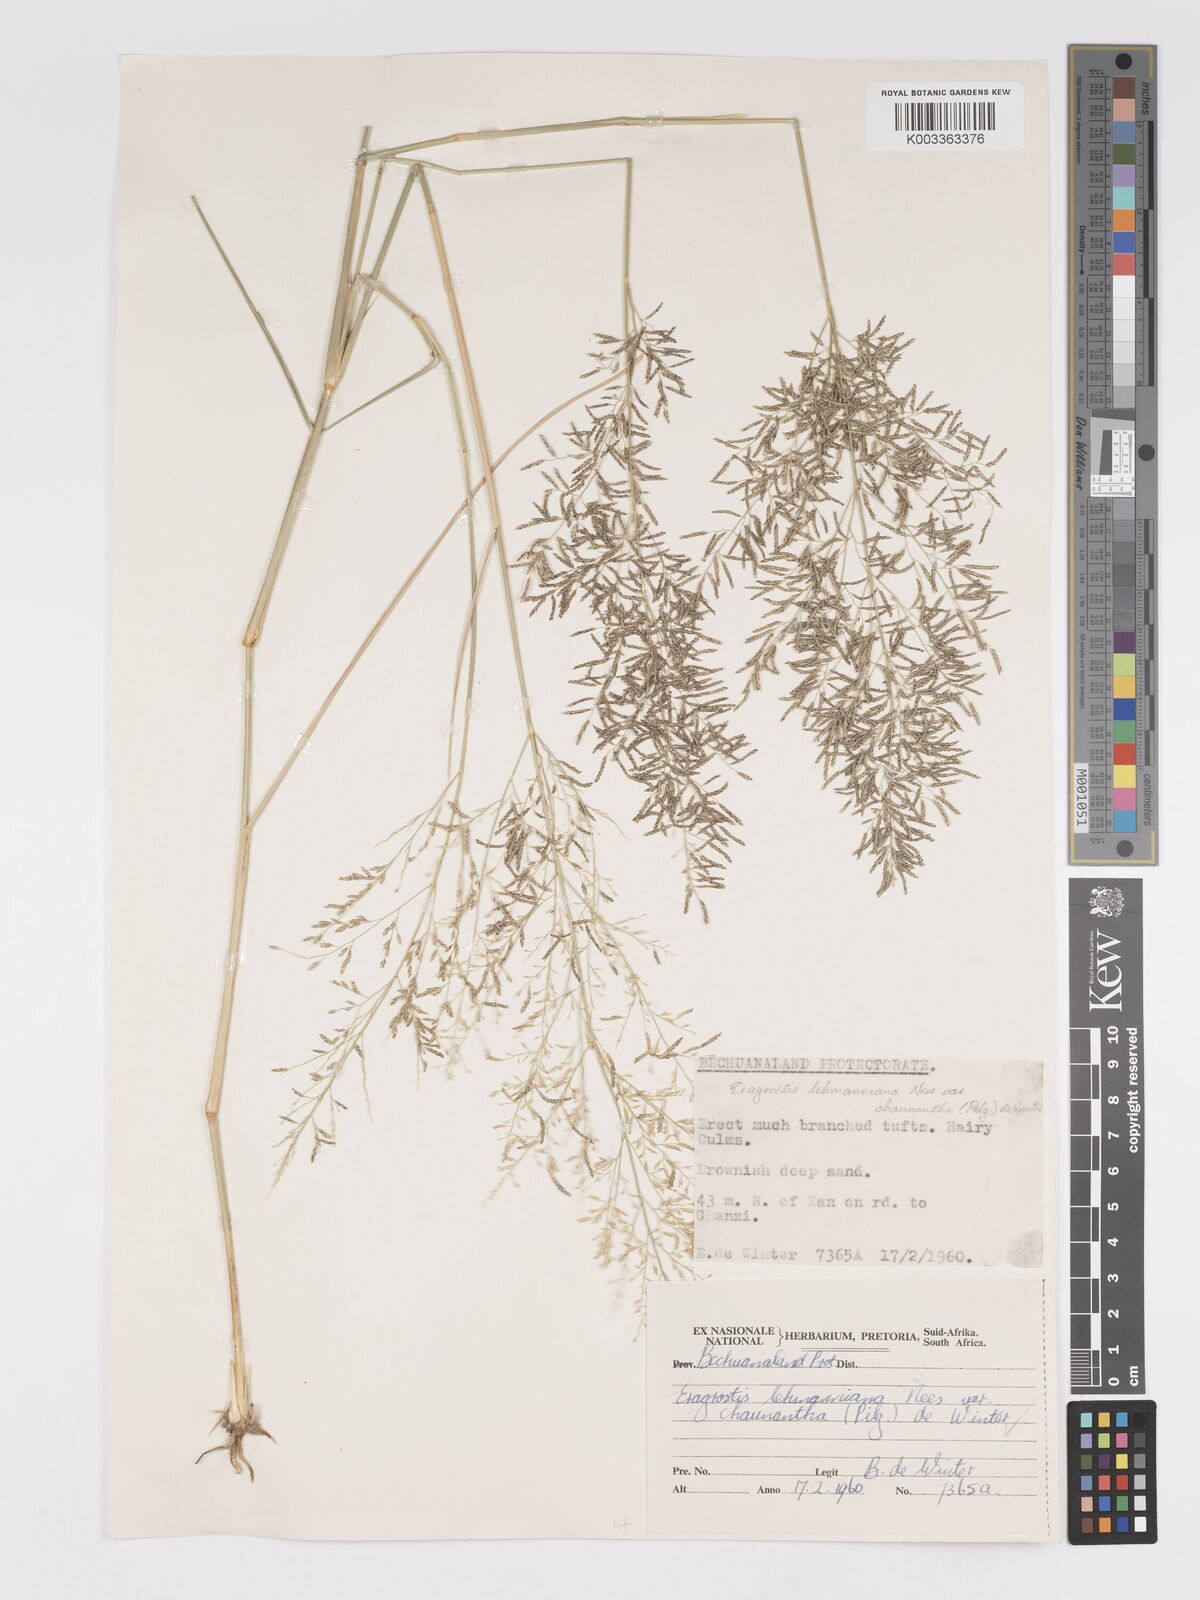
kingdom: Plantae
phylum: Tracheophyta
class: Liliopsida
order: Poales
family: Poaceae
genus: Eragrostis
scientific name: Eragrostis lehmanniana
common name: Lehmann lovegrass
